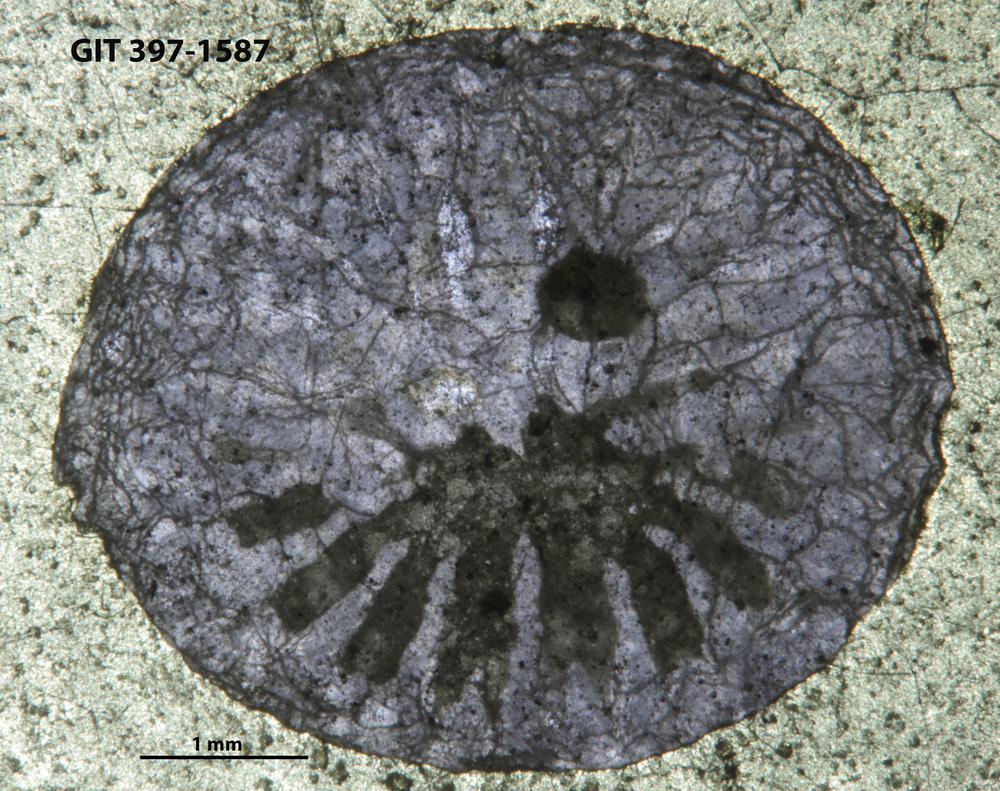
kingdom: Animalia
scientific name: Animalia
